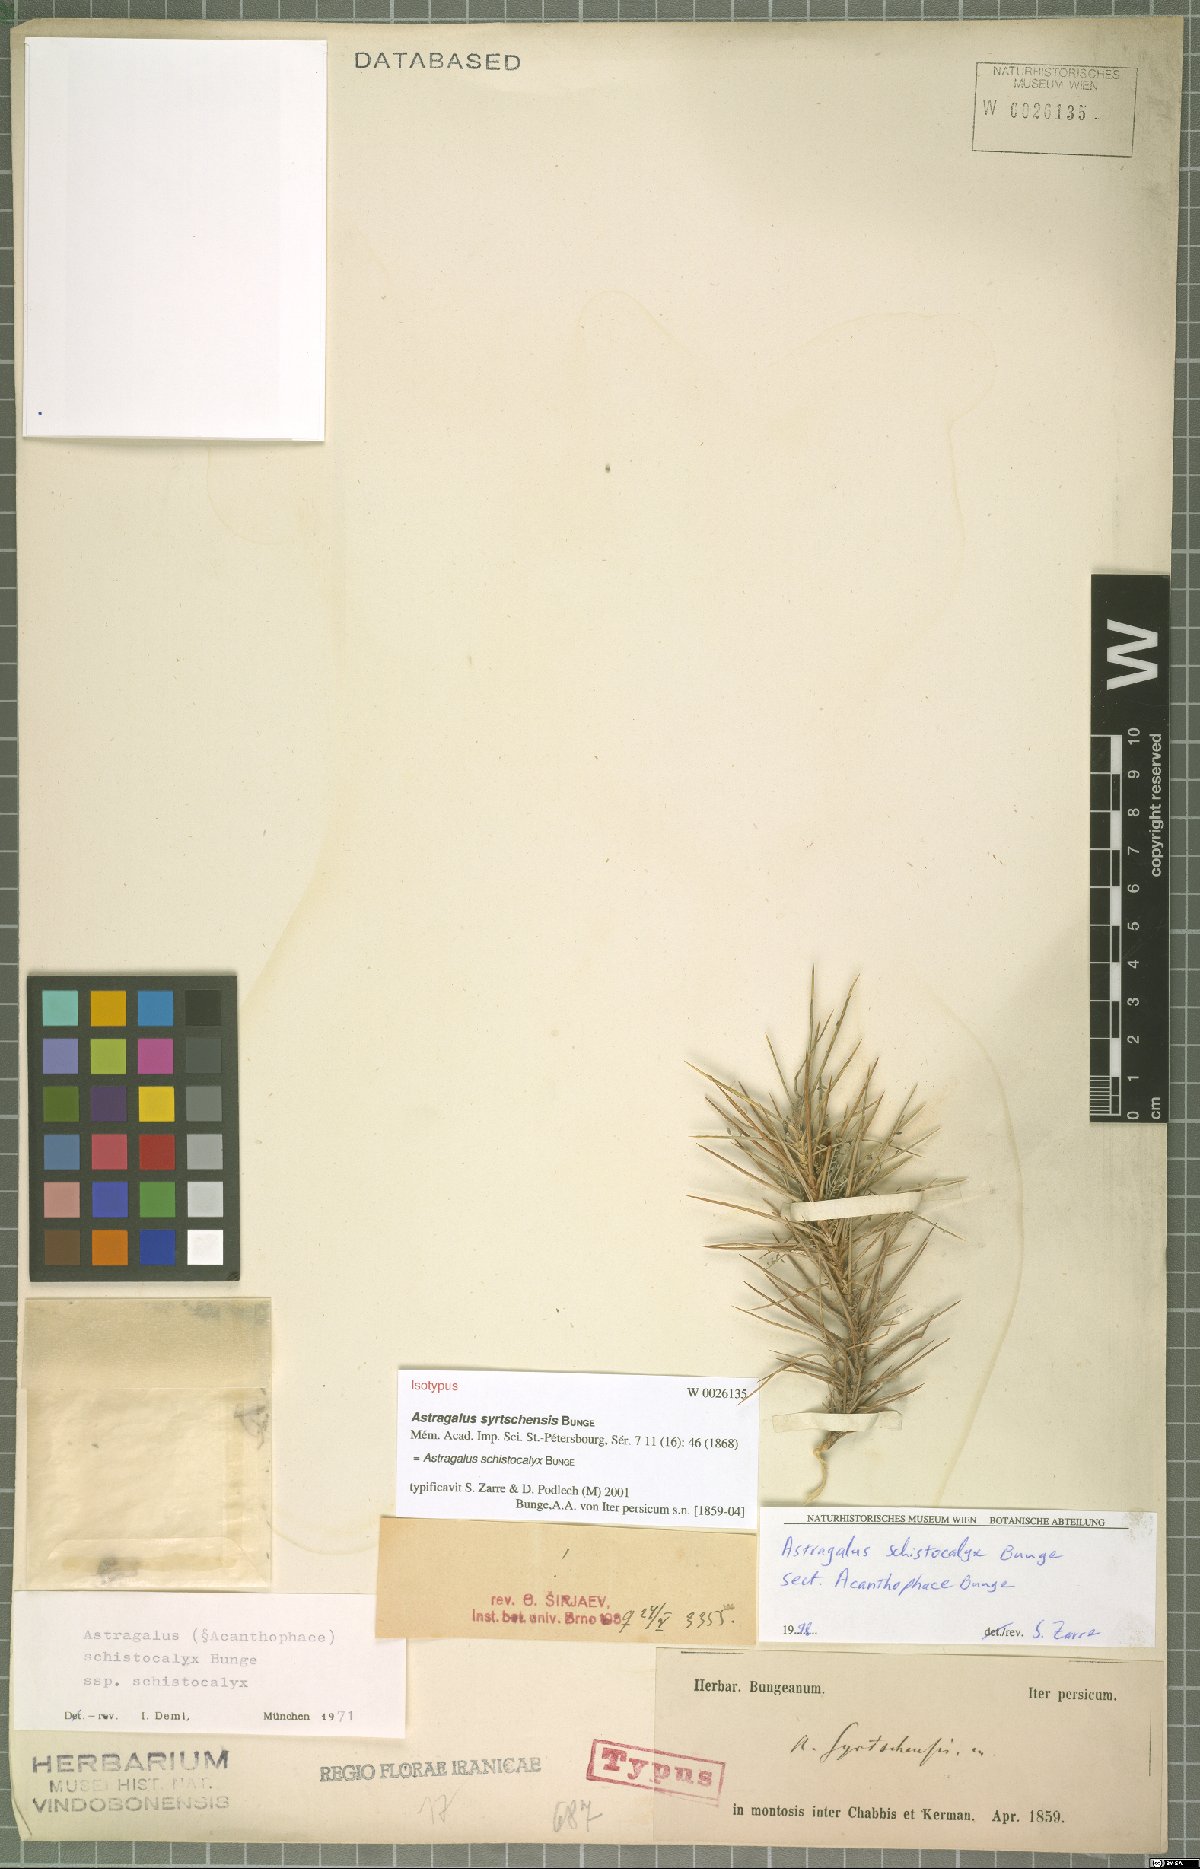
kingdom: Plantae
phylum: Tracheophyta
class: Magnoliopsida
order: Fabales
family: Fabaceae
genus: Astragalus
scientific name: Astragalus lycioides
